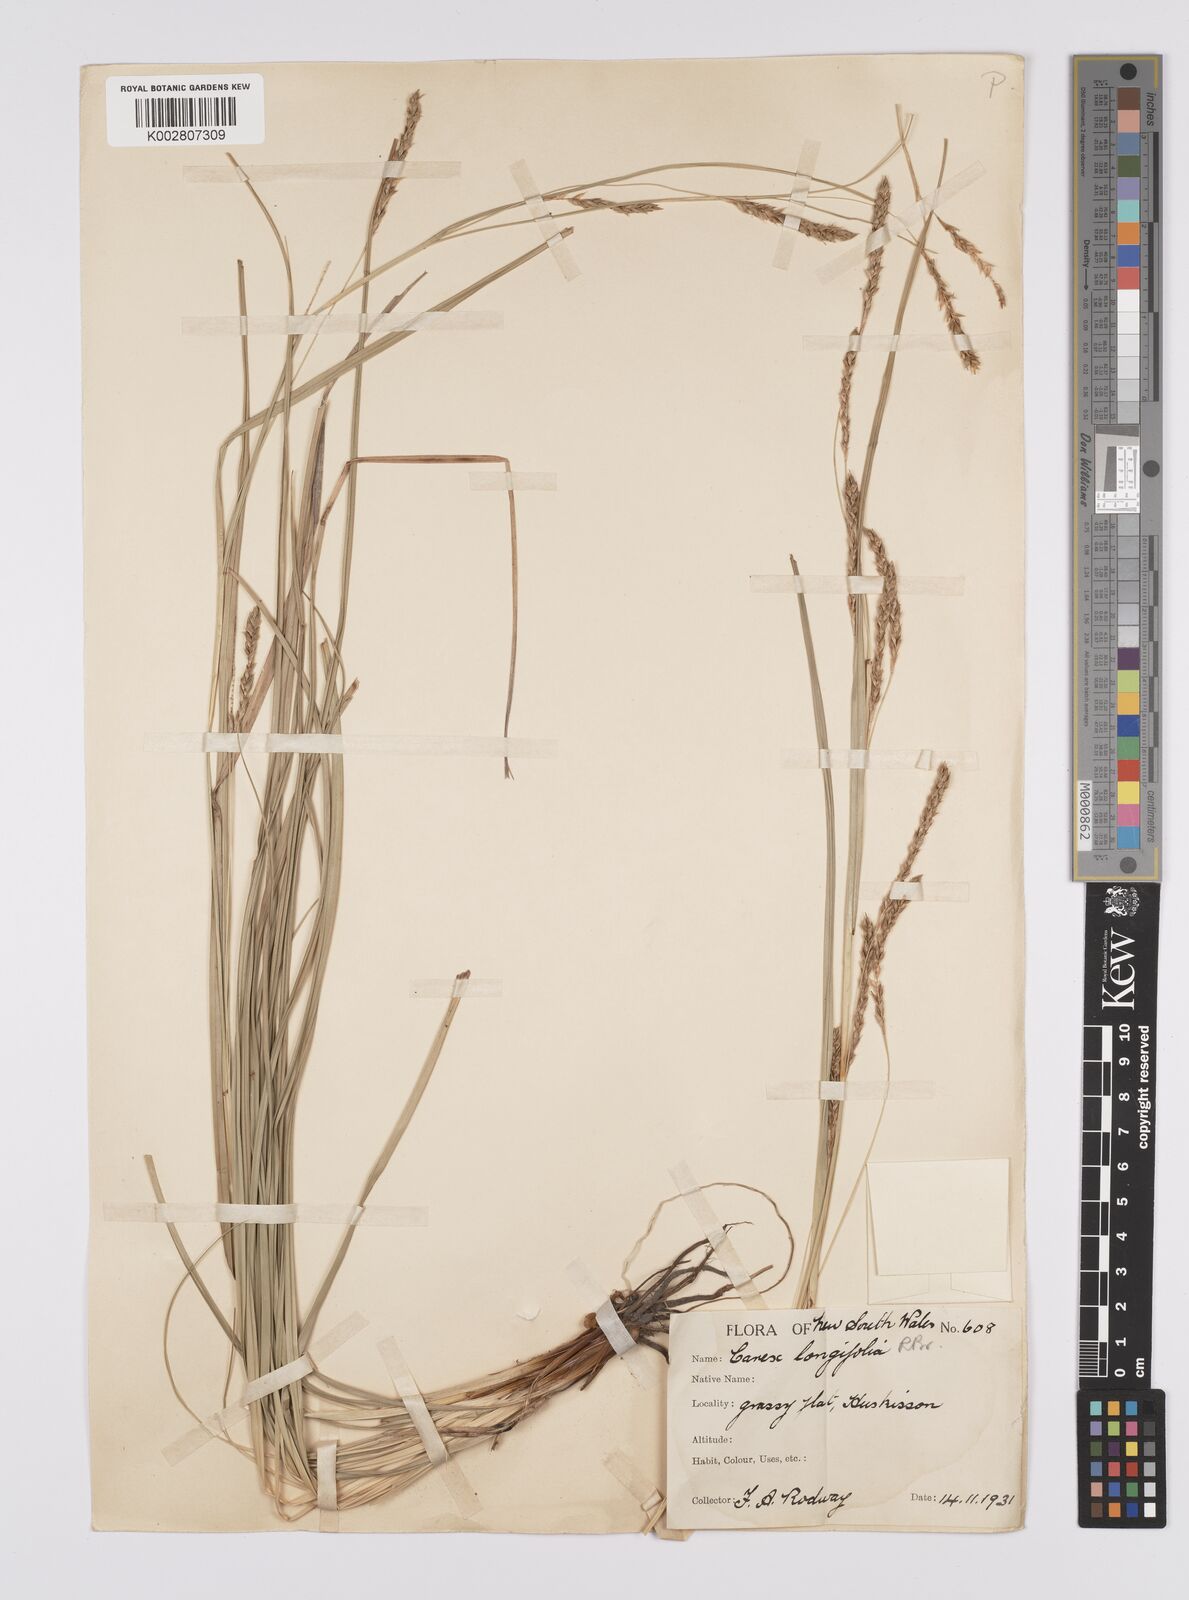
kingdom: Plantae
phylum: Tracheophyta
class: Liliopsida
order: Poales
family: Cyperaceae
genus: Carex
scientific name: Carex pseudocyperus
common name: Cyperus sedge
